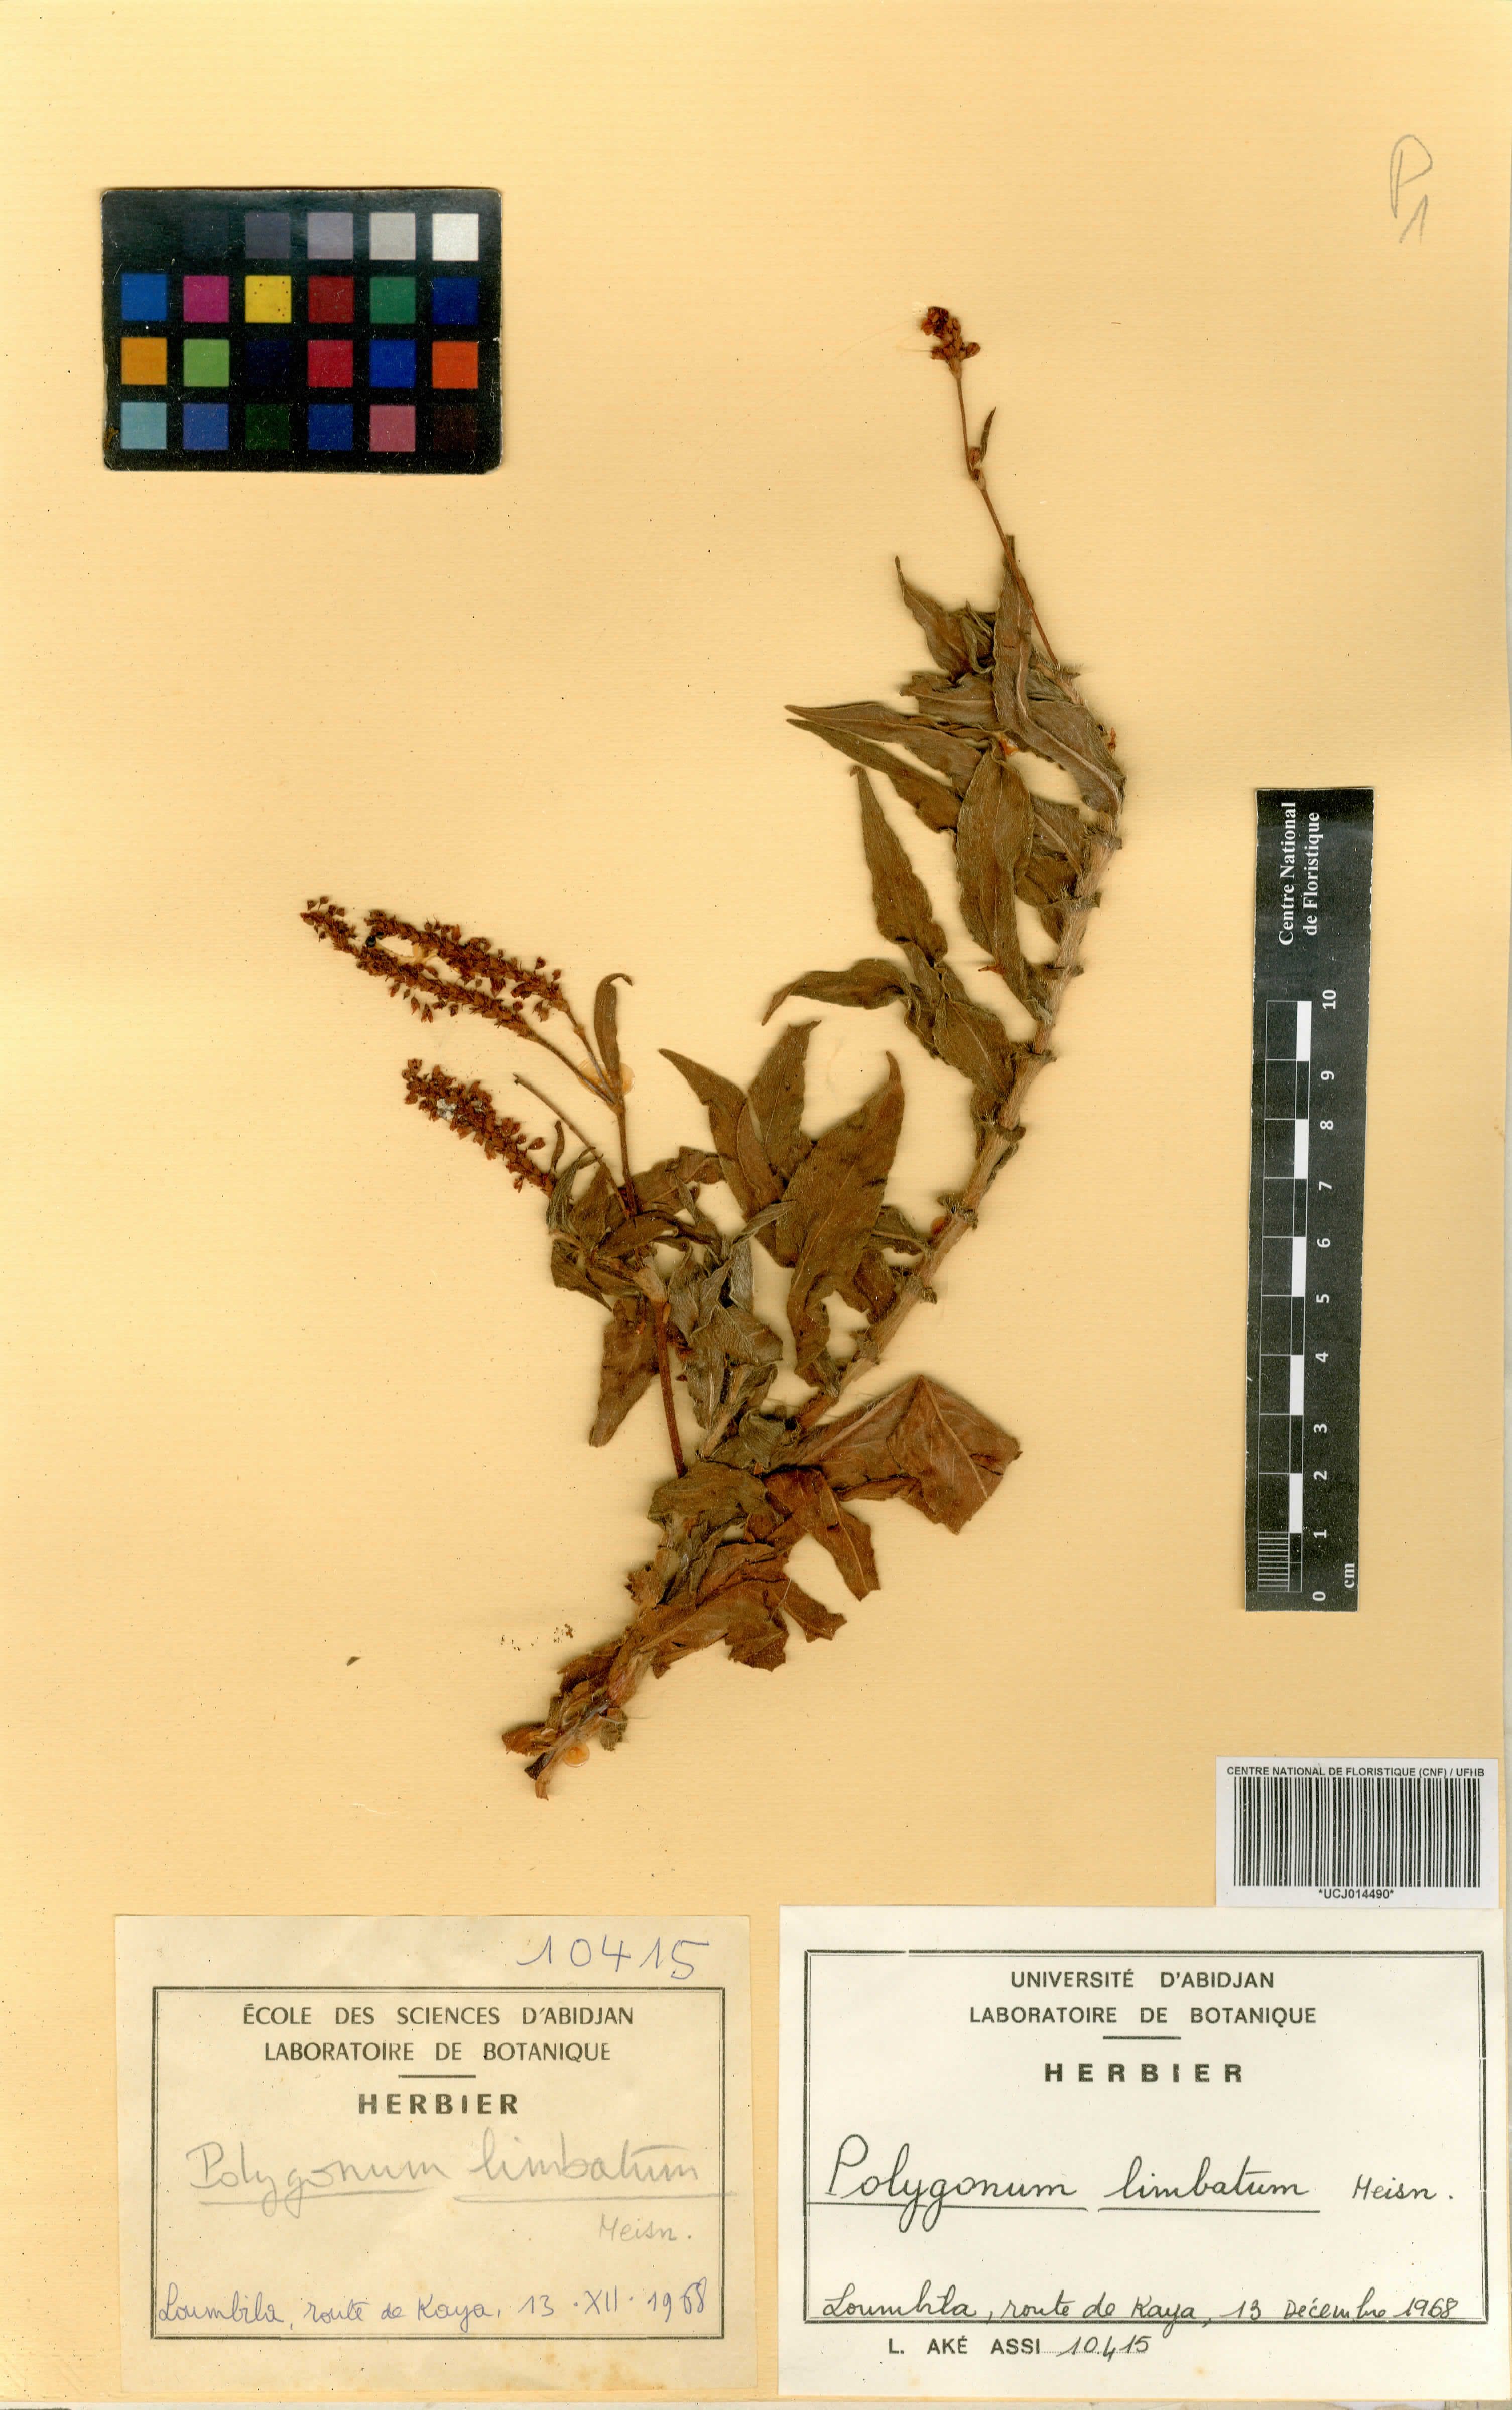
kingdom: Plantae
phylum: Tracheophyta
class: Magnoliopsida
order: Caryophyllales
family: Polygonaceae
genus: Persicaria
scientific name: Persicaria limbata
